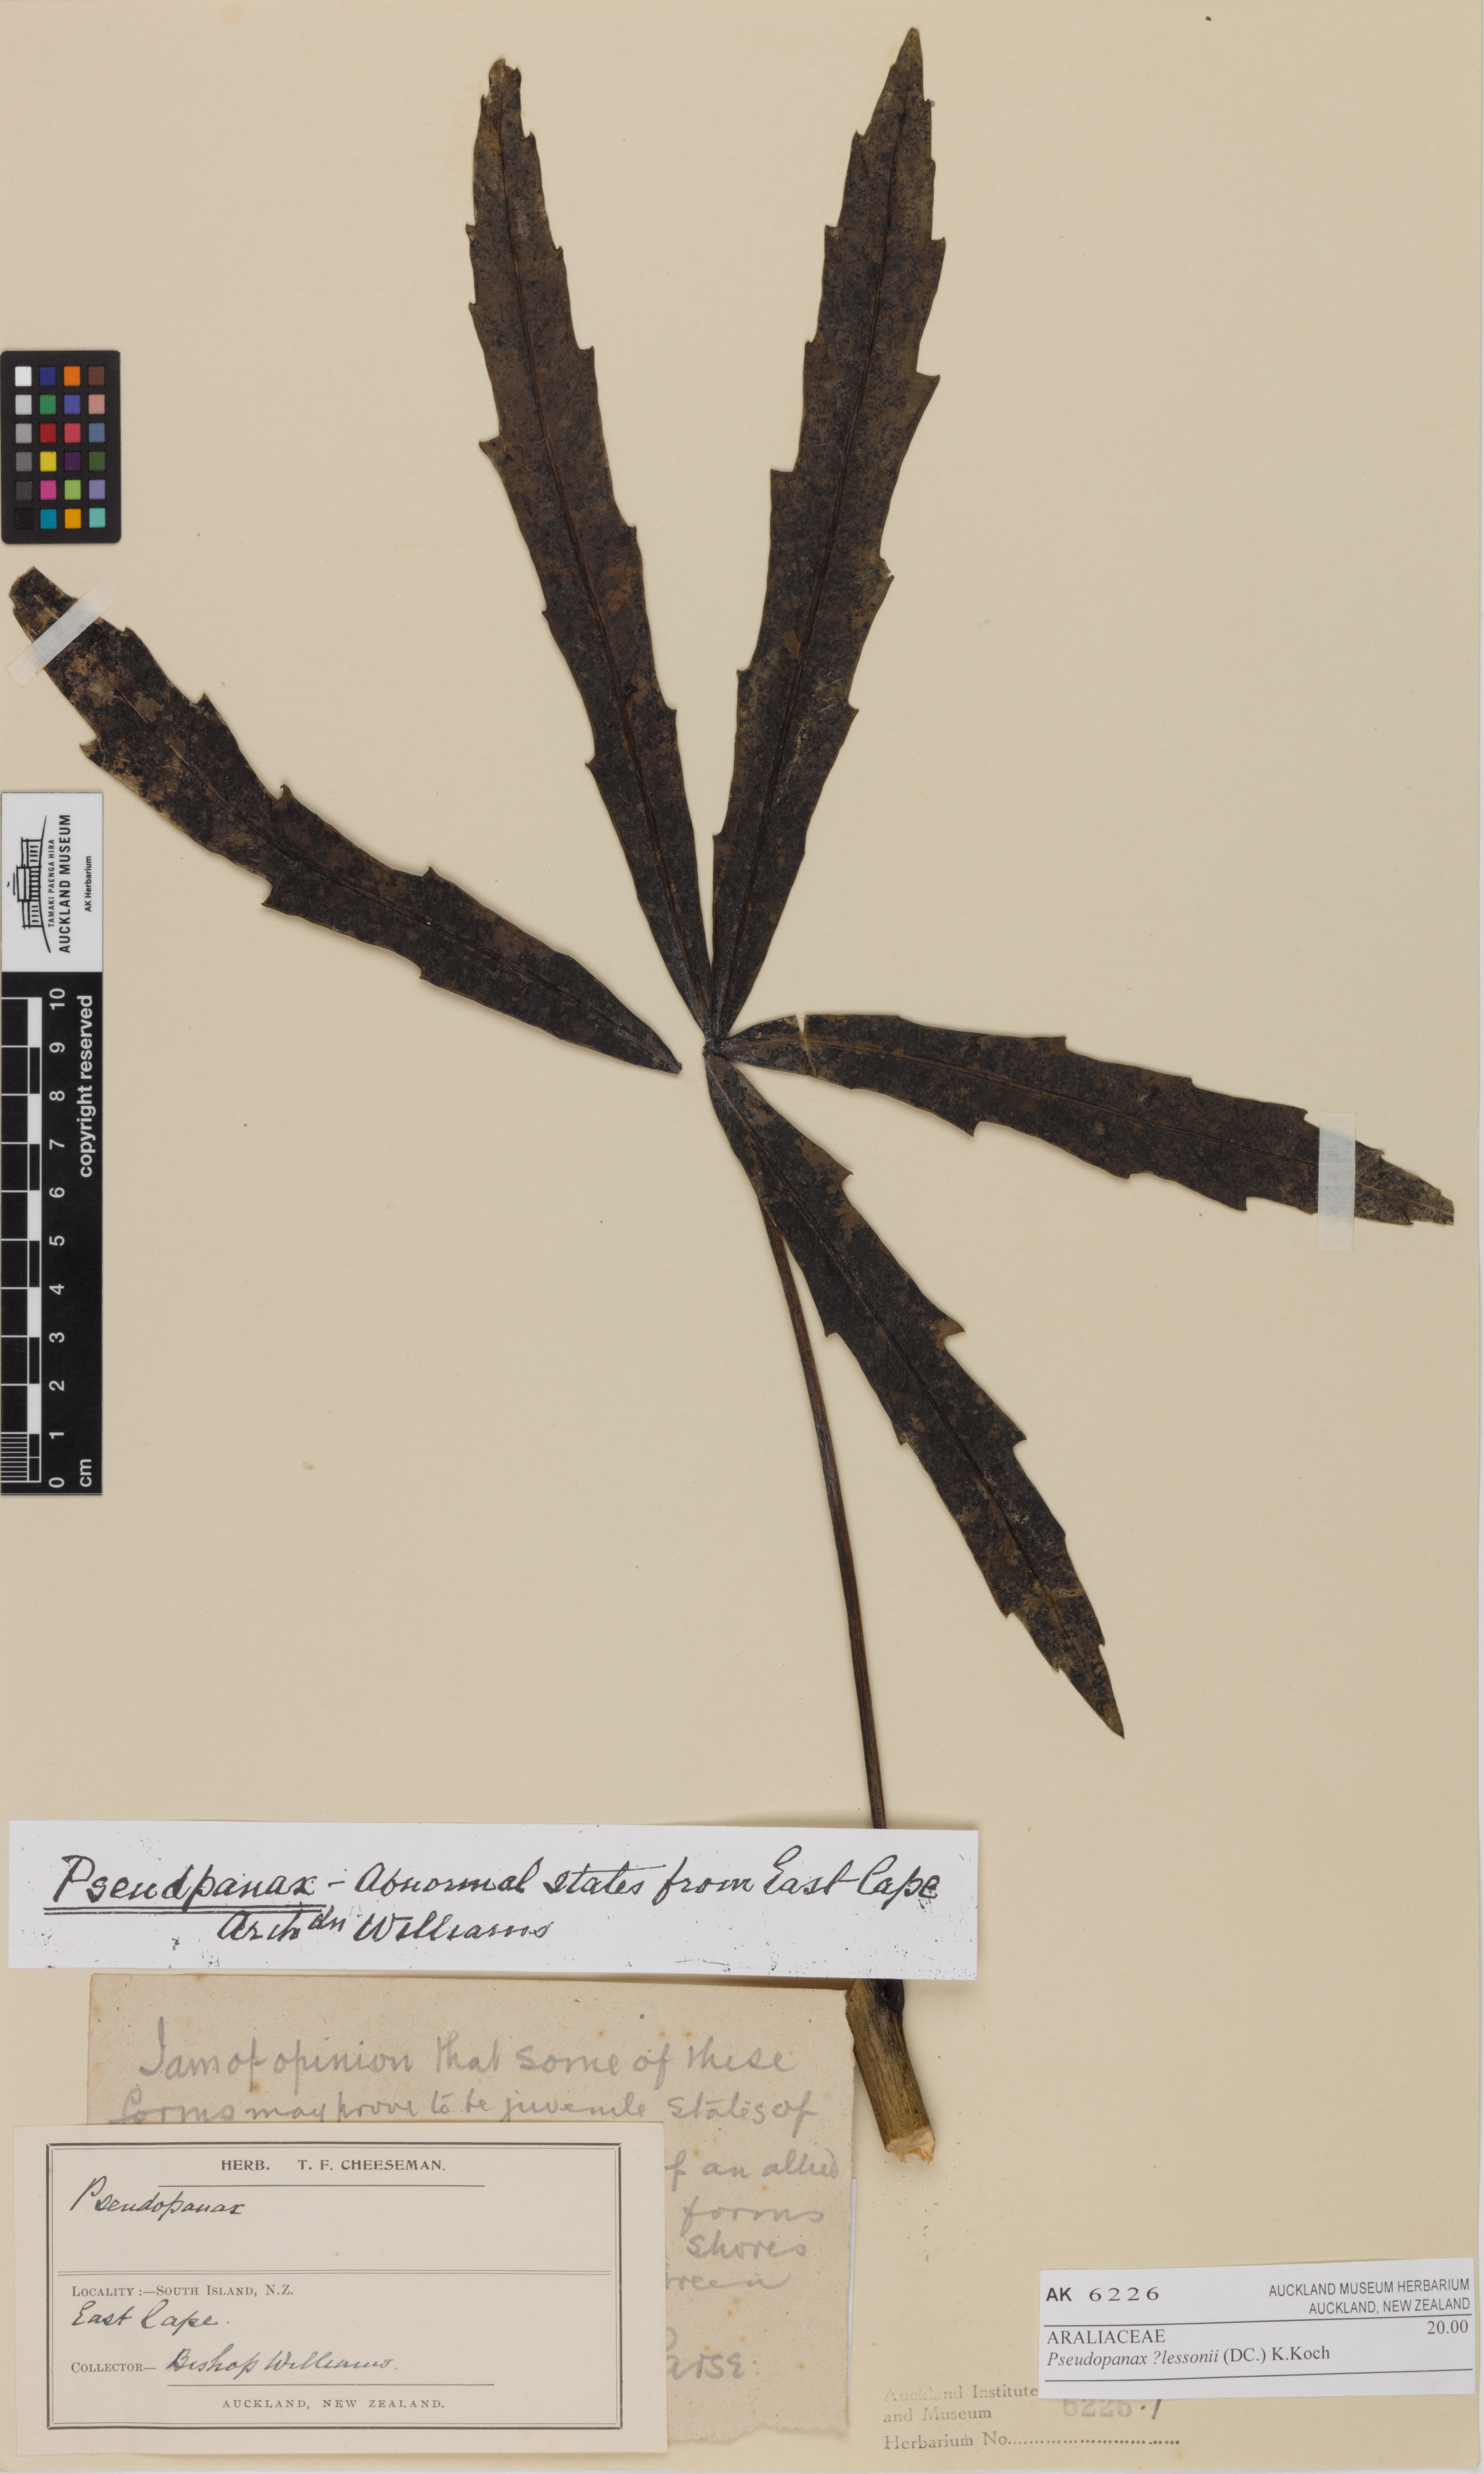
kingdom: Plantae
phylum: Tracheophyta
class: Magnoliopsida
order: Apiales
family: Araliaceae
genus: Pseudopanax
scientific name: Pseudopanax lessonii
